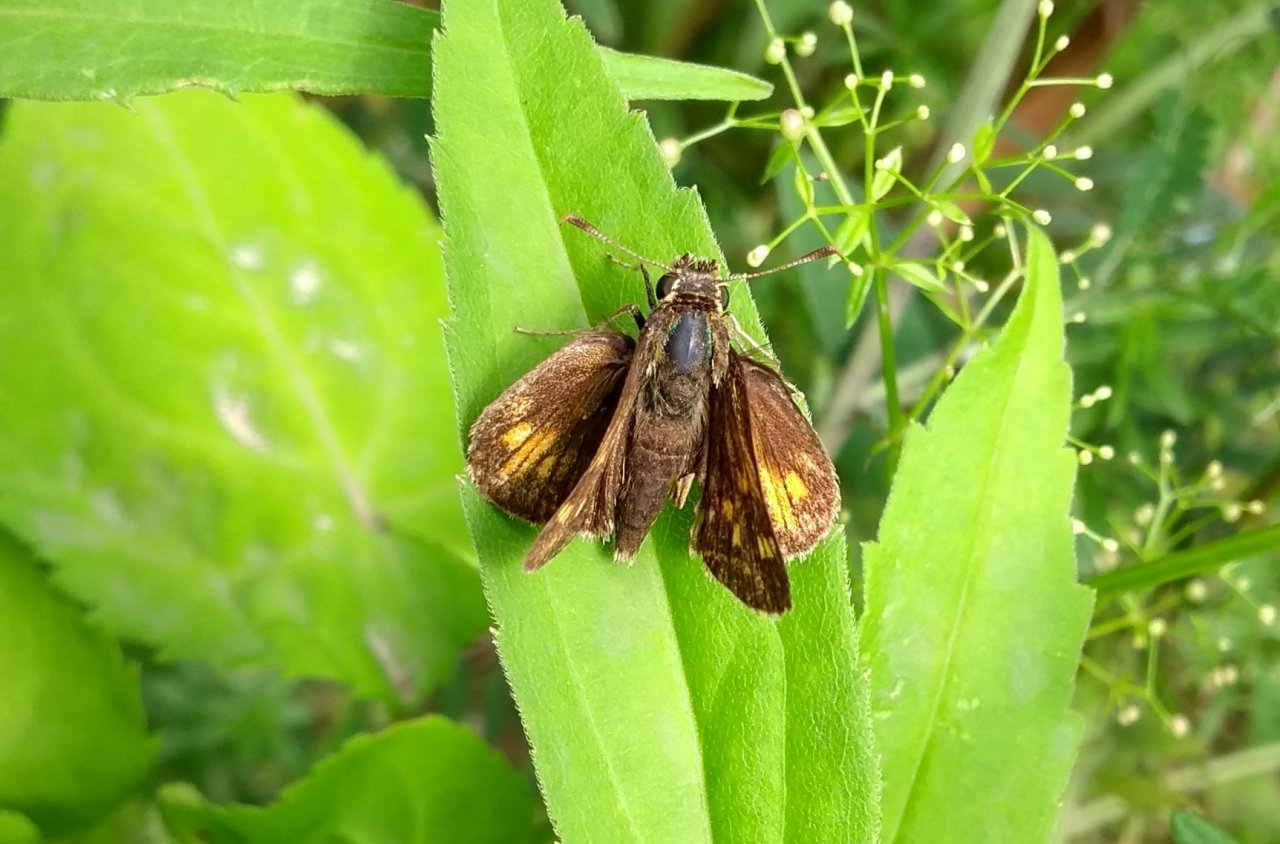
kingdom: Animalia
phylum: Arthropoda
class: Insecta
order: Lepidoptera
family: Hesperiidae
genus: Polites
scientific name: Polites coras
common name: Peck's Skipper
